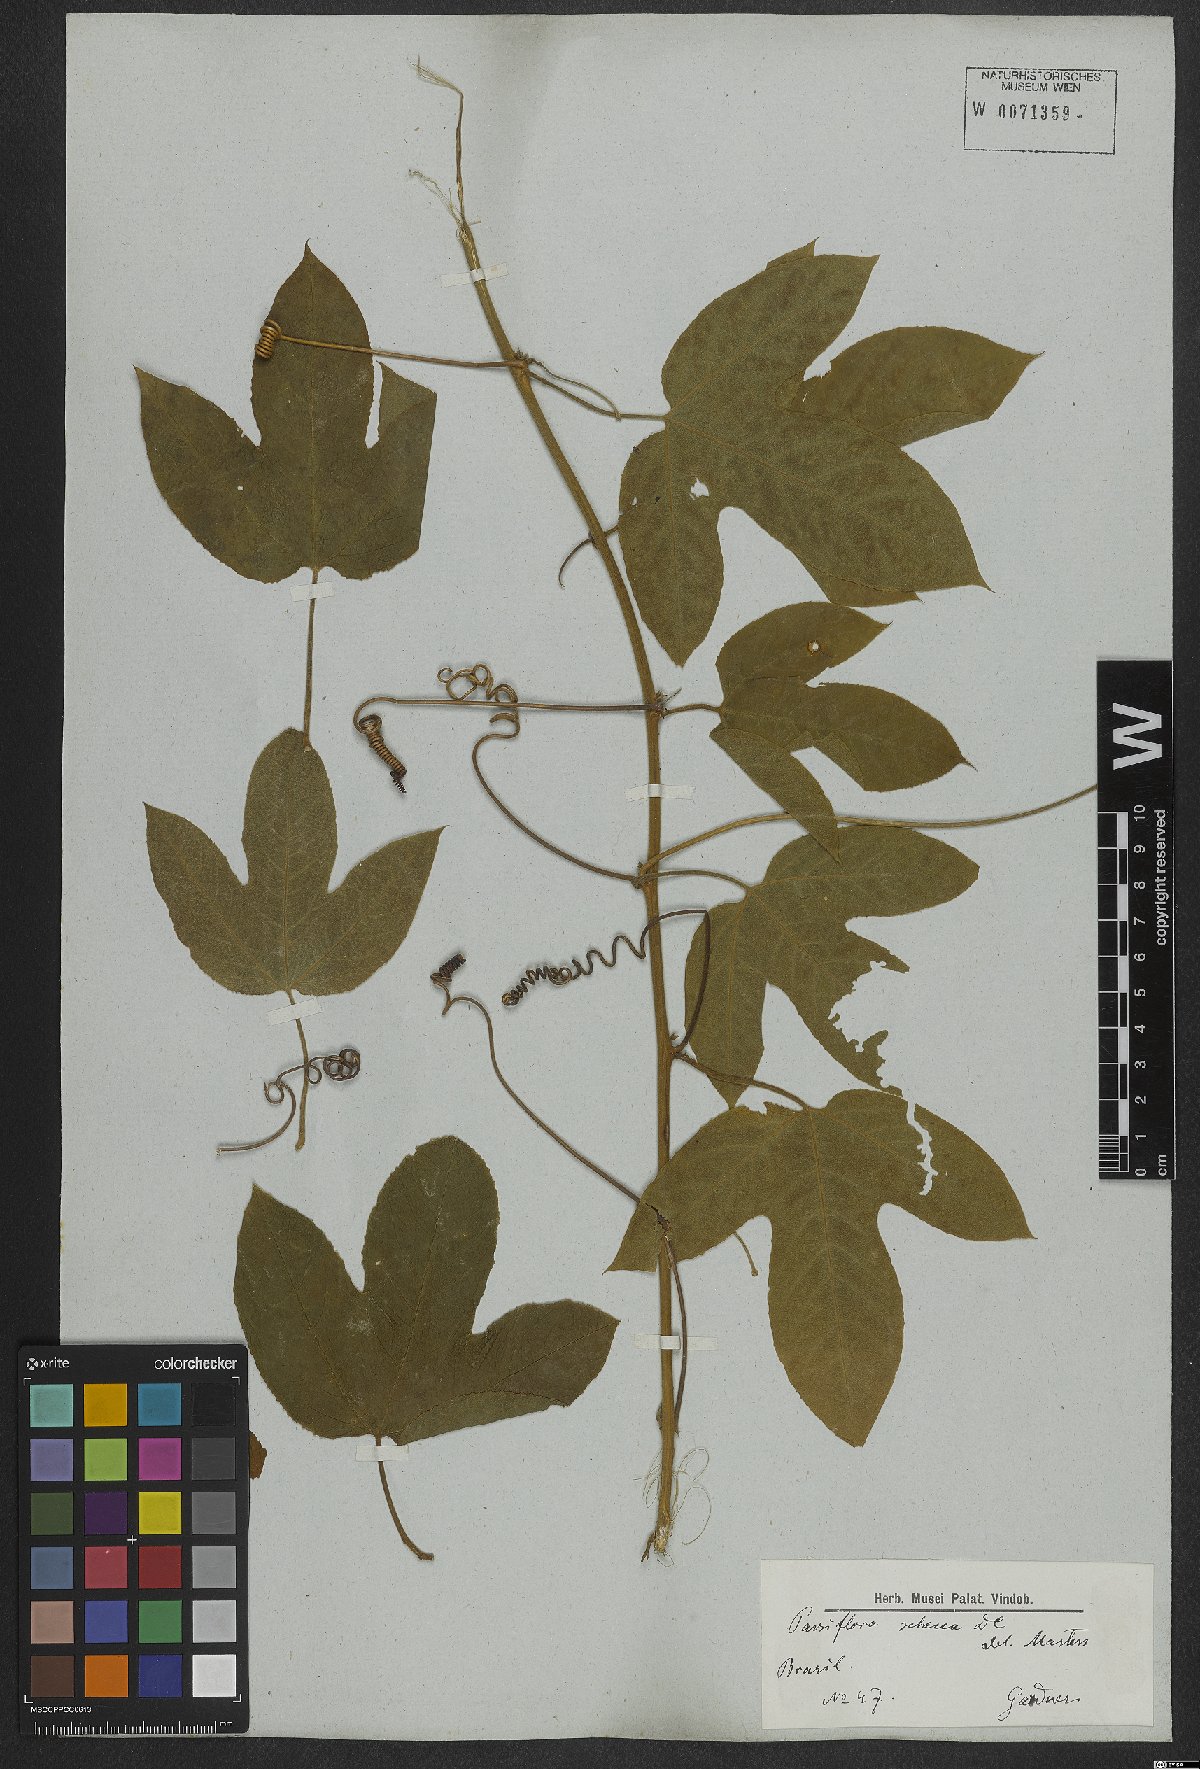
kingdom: Plantae
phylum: Tracheophyta
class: Magnoliopsida
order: Malpighiales
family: Passifloraceae
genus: Passiflora
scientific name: Passiflora setacea
